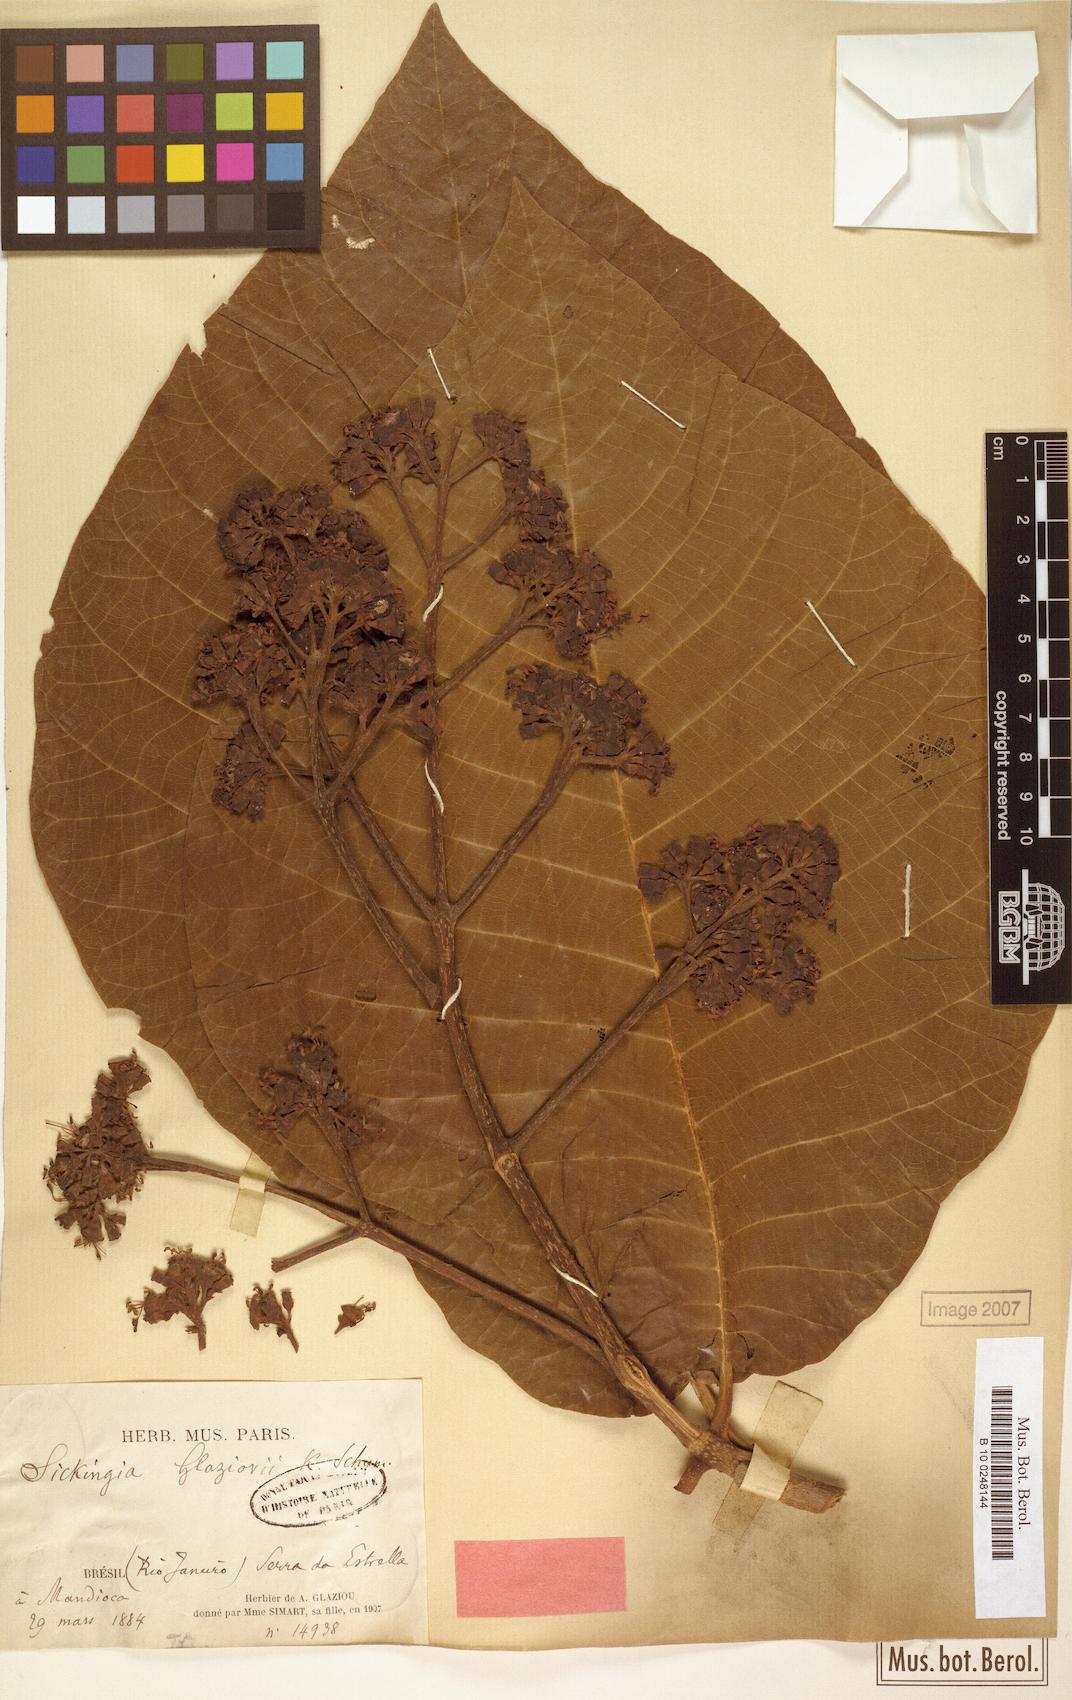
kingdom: Plantae
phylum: Tracheophyta
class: Magnoliopsida
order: Gentianales
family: Rubiaceae
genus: Simira
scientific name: Simira alba
